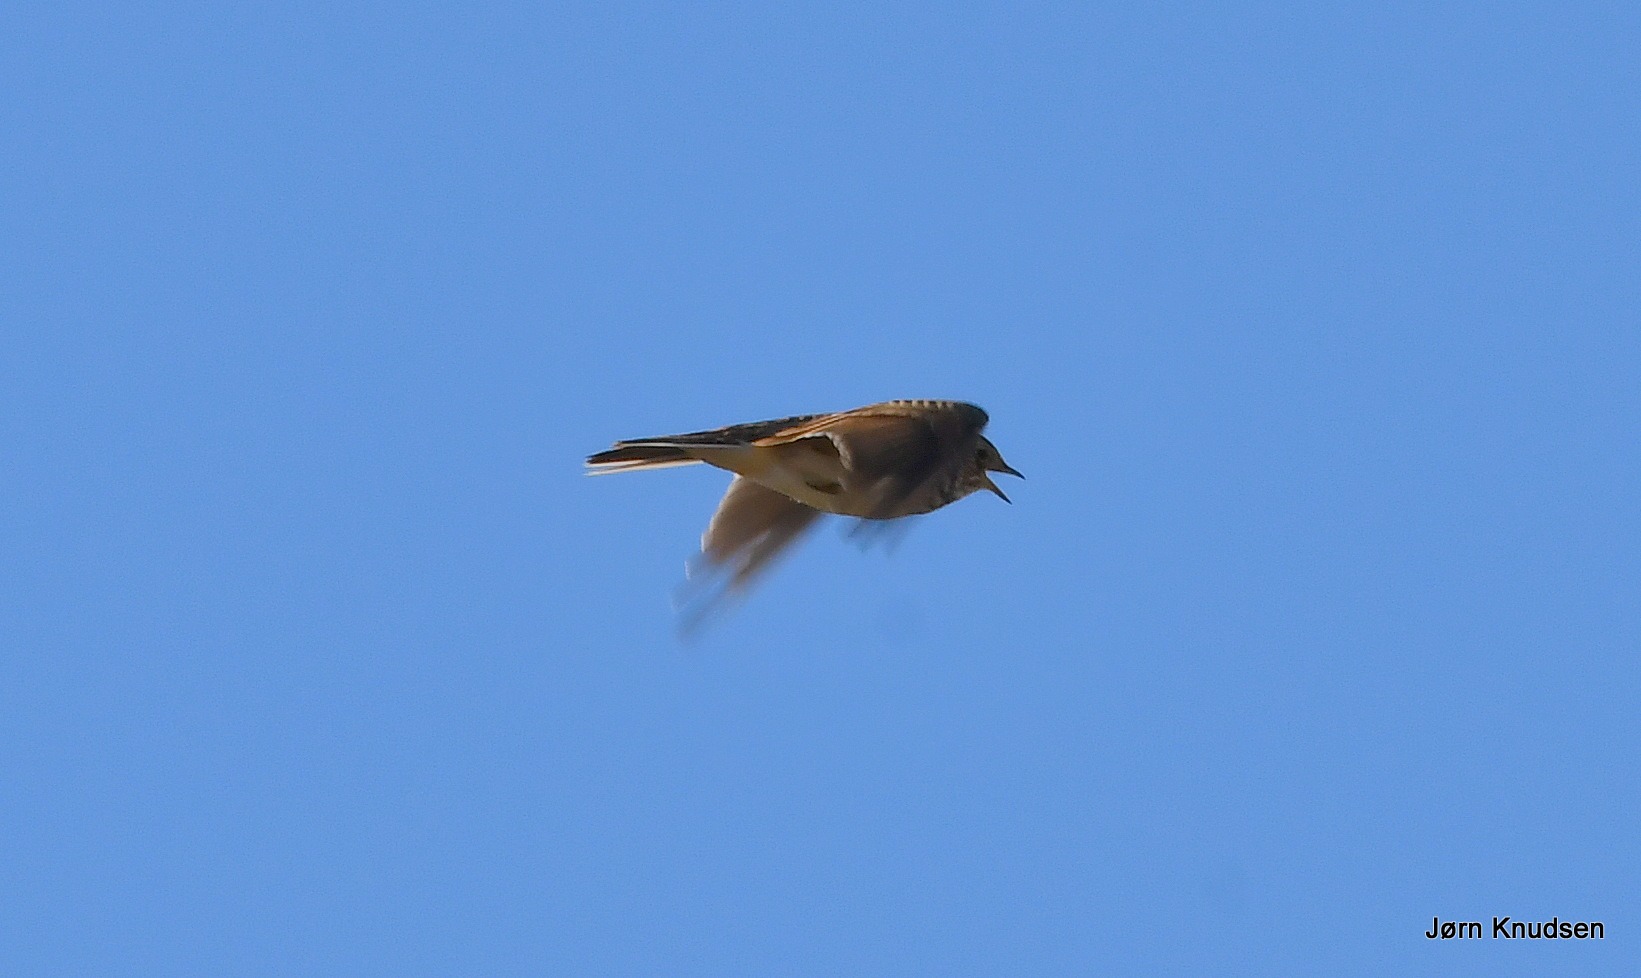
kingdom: Animalia
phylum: Chordata
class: Aves
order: Passeriformes
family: Alaudidae
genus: Alauda
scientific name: Alauda arvensis
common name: Sanglærke
